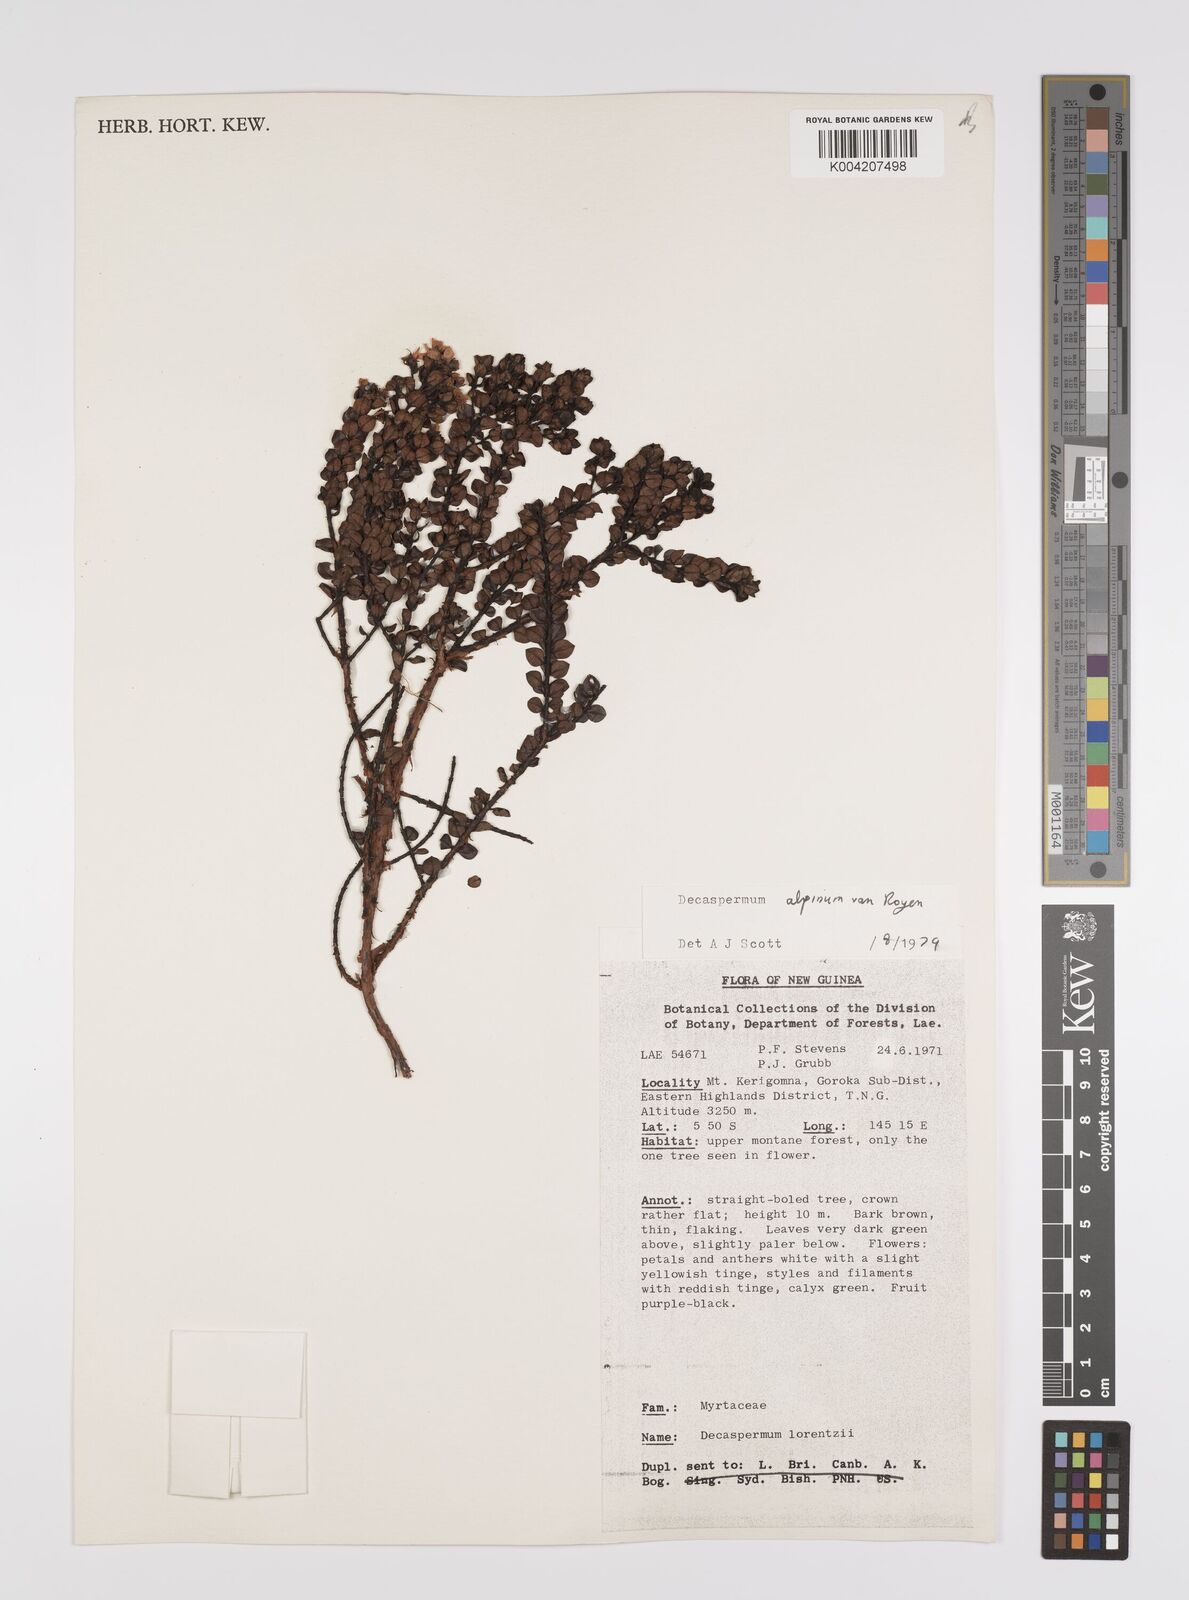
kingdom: Plantae
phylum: Tracheophyta
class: Magnoliopsida
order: Myrtales
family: Myrtaceae
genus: Decaspermum
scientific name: Decaspermum alpinum
